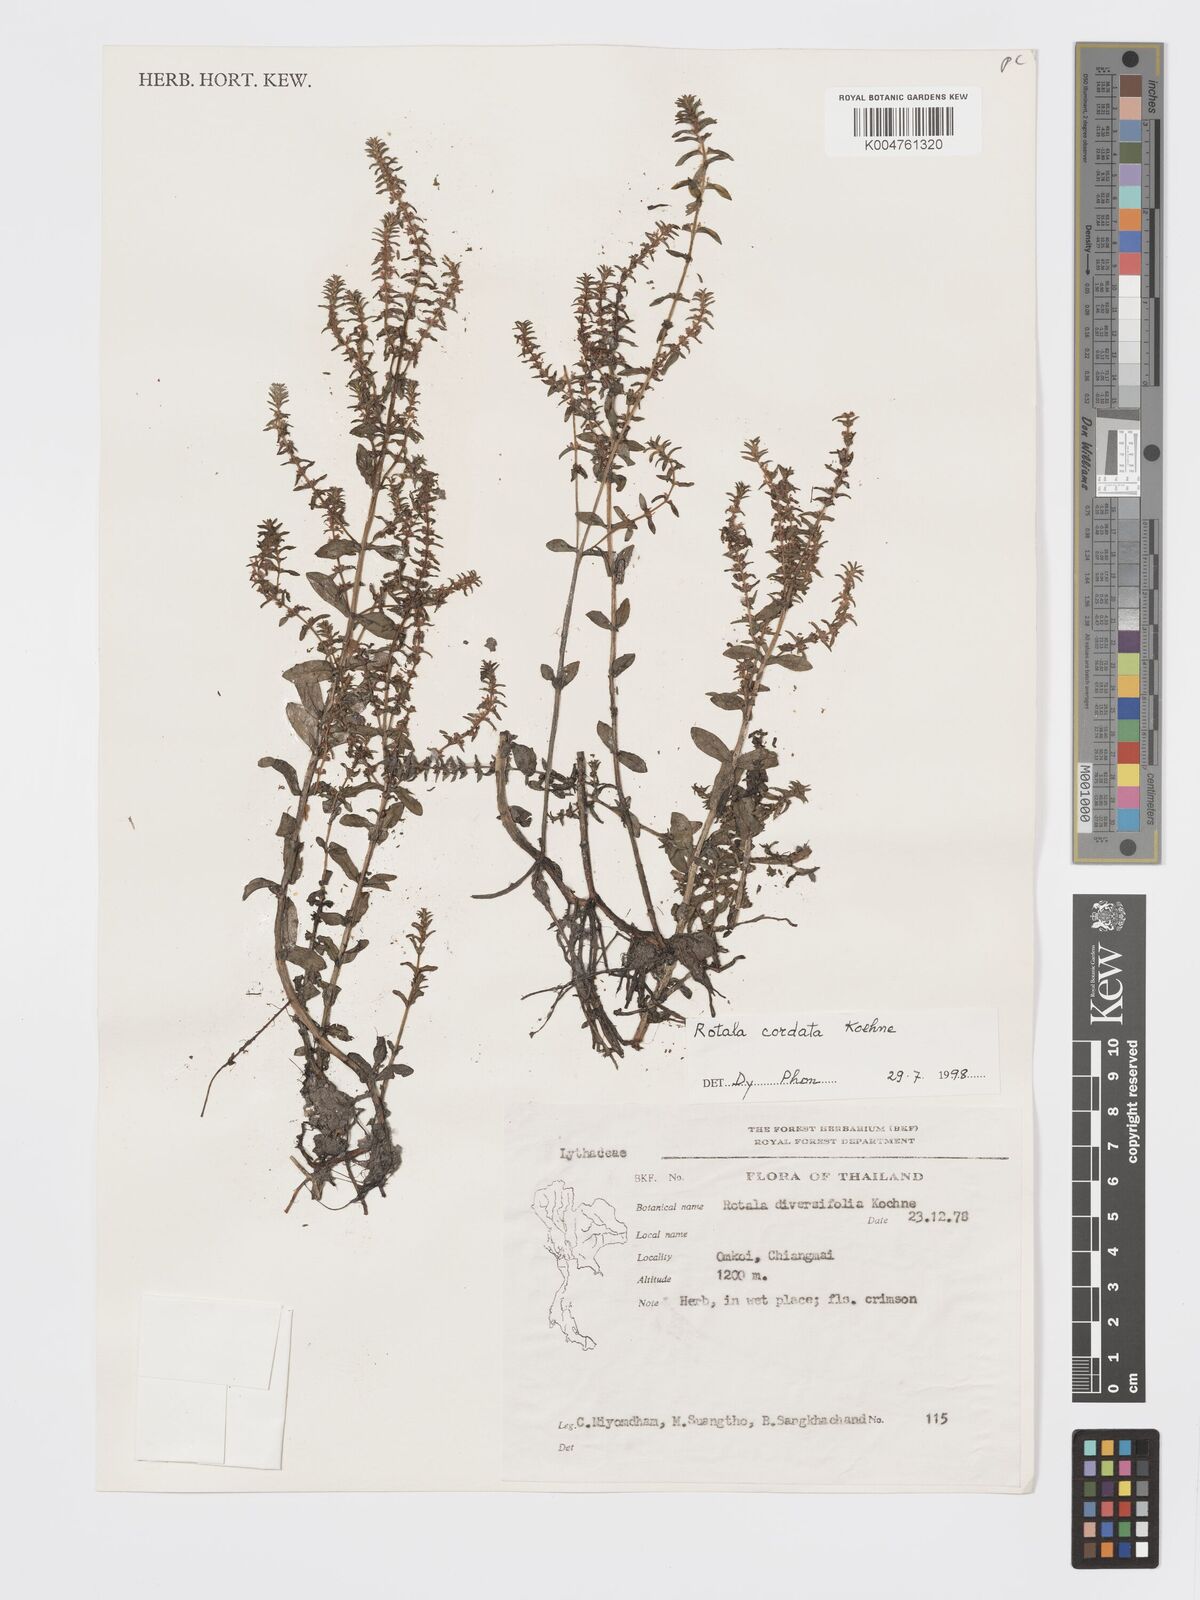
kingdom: Plantae
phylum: Tracheophyta
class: Magnoliopsida
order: Myrtales
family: Lythraceae
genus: Rotala
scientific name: Rotala cordata
